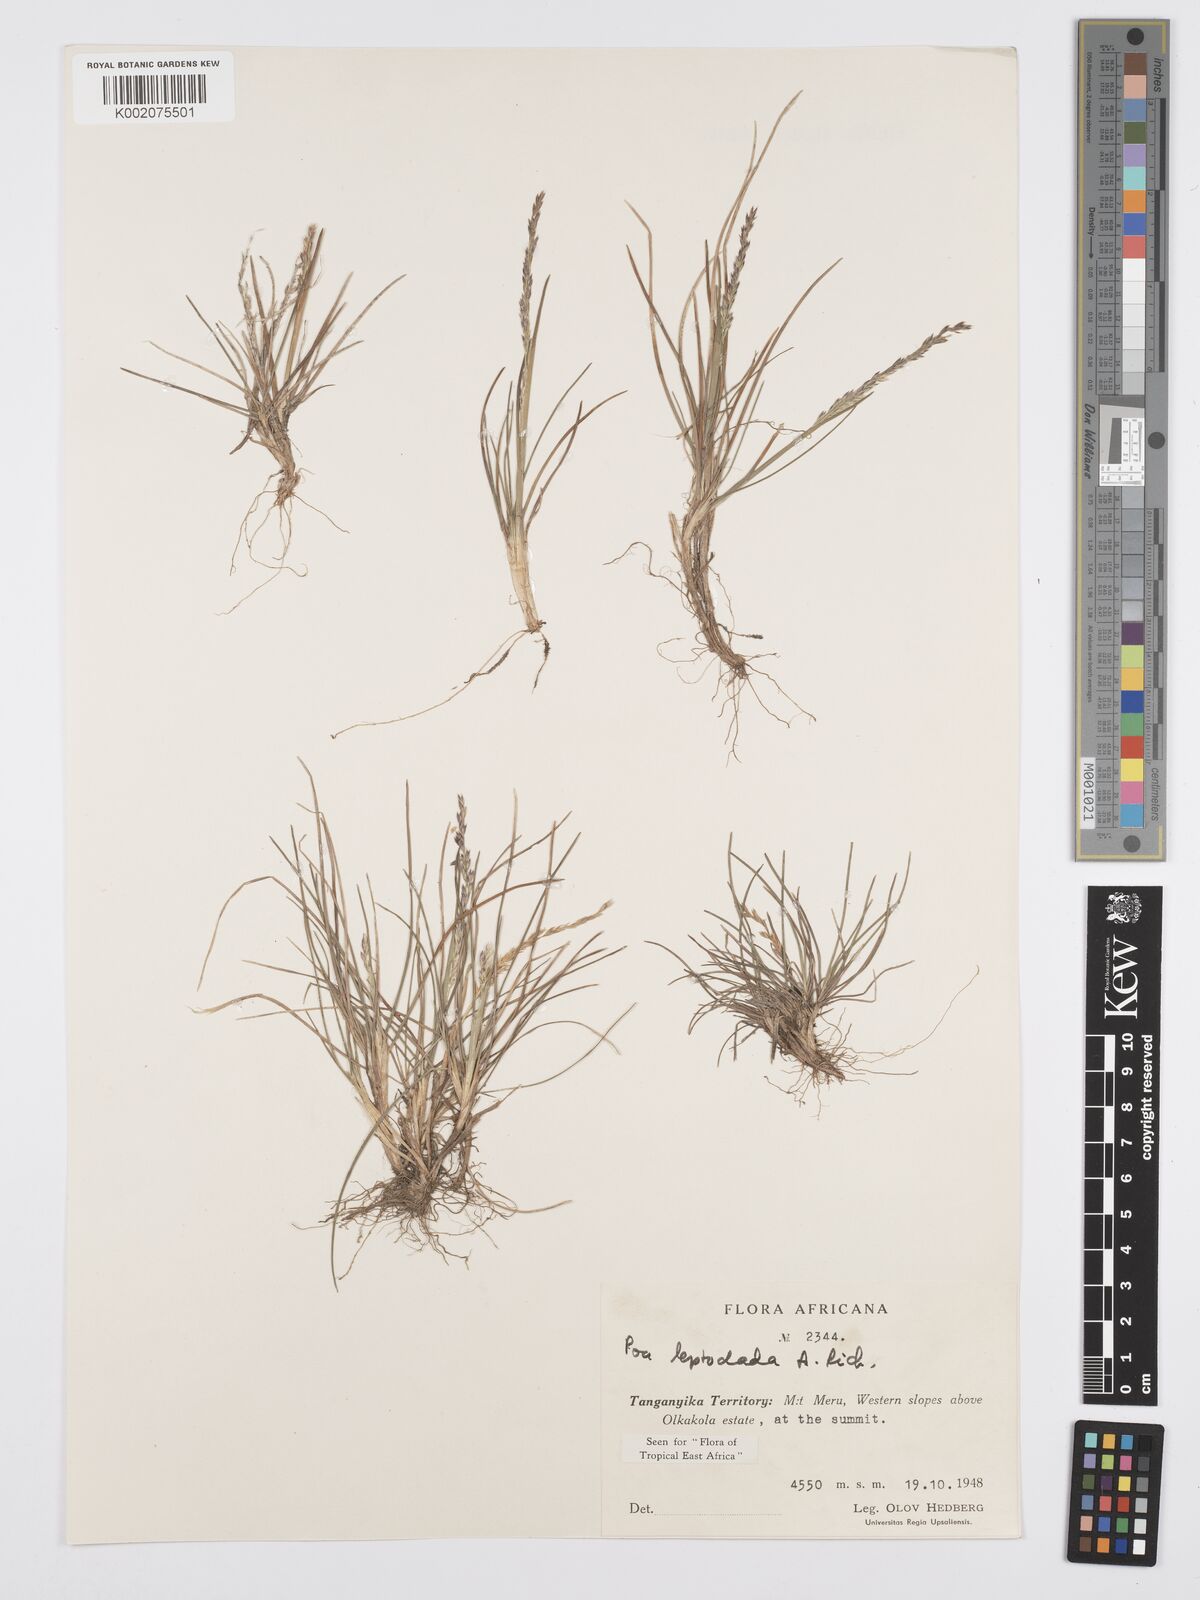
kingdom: Plantae
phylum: Tracheophyta
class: Liliopsida
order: Poales
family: Poaceae
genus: Poa
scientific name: Poa leptoclada
